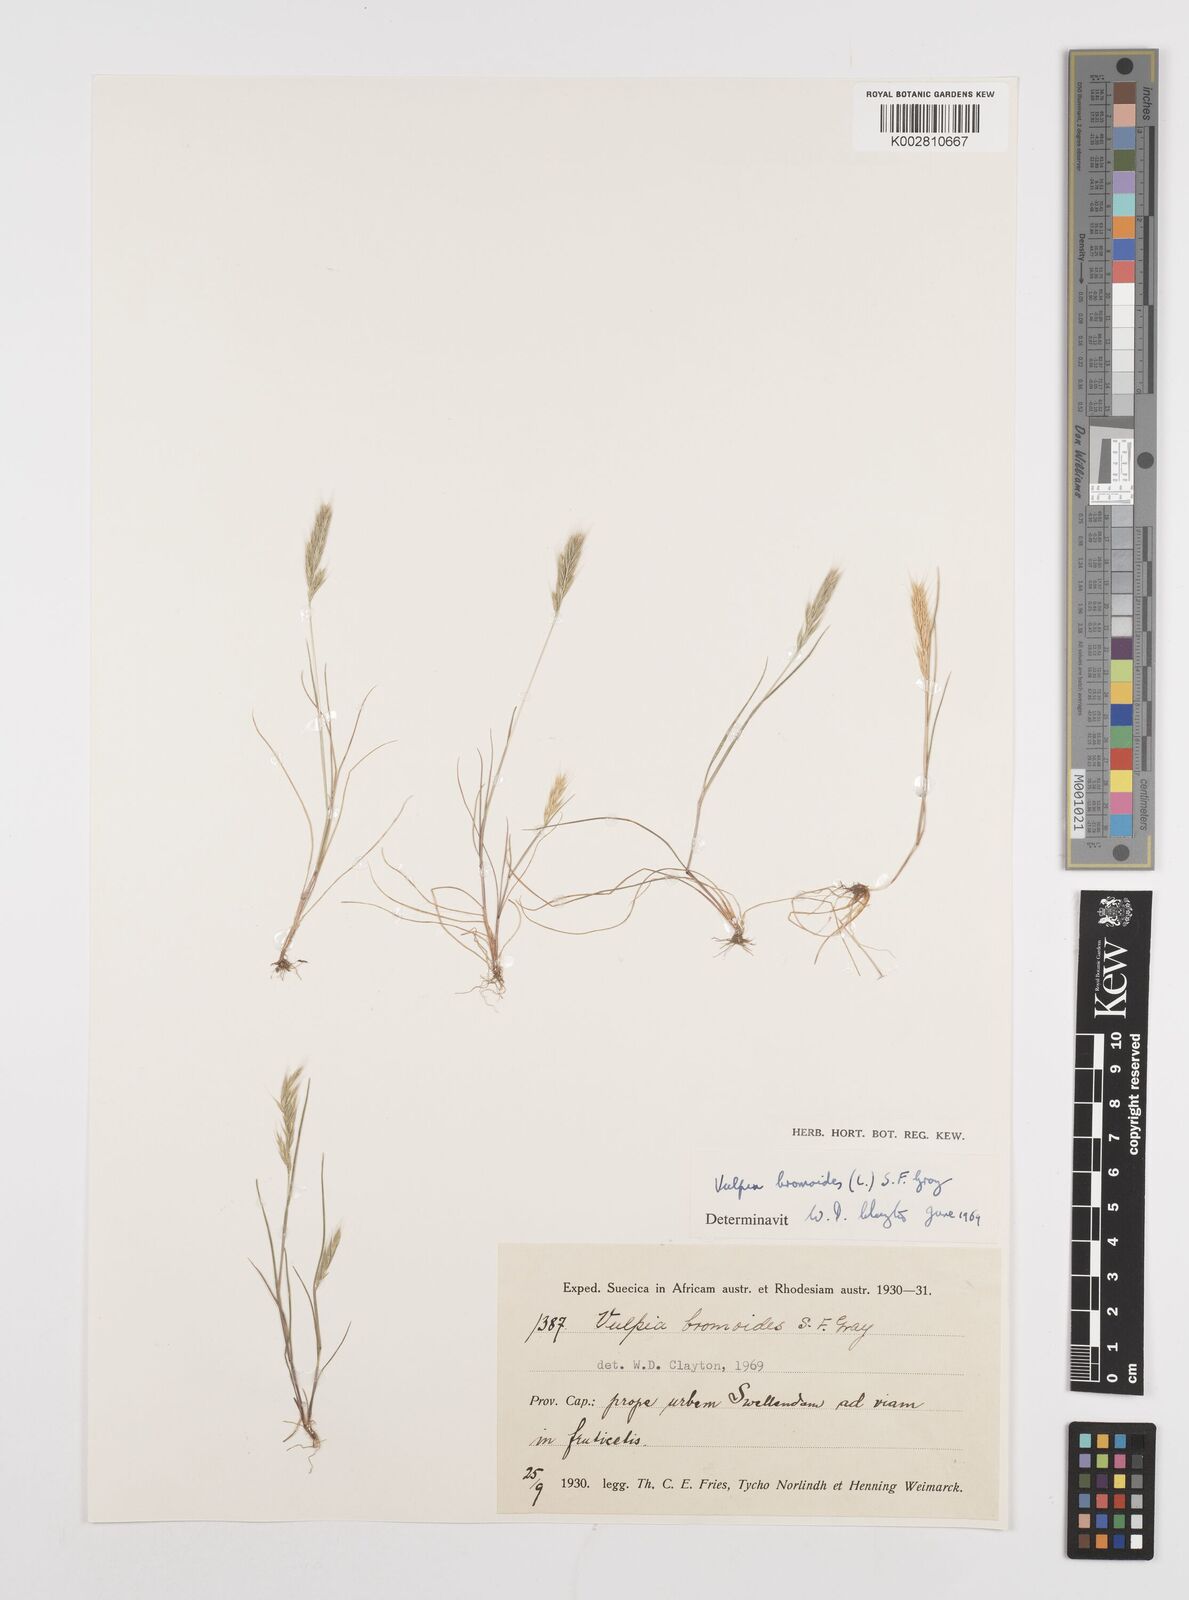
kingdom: Plantae
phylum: Tracheophyta
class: Liliopsida
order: Poales
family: Poaceae
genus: Festuca
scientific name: Festuca bromoides
